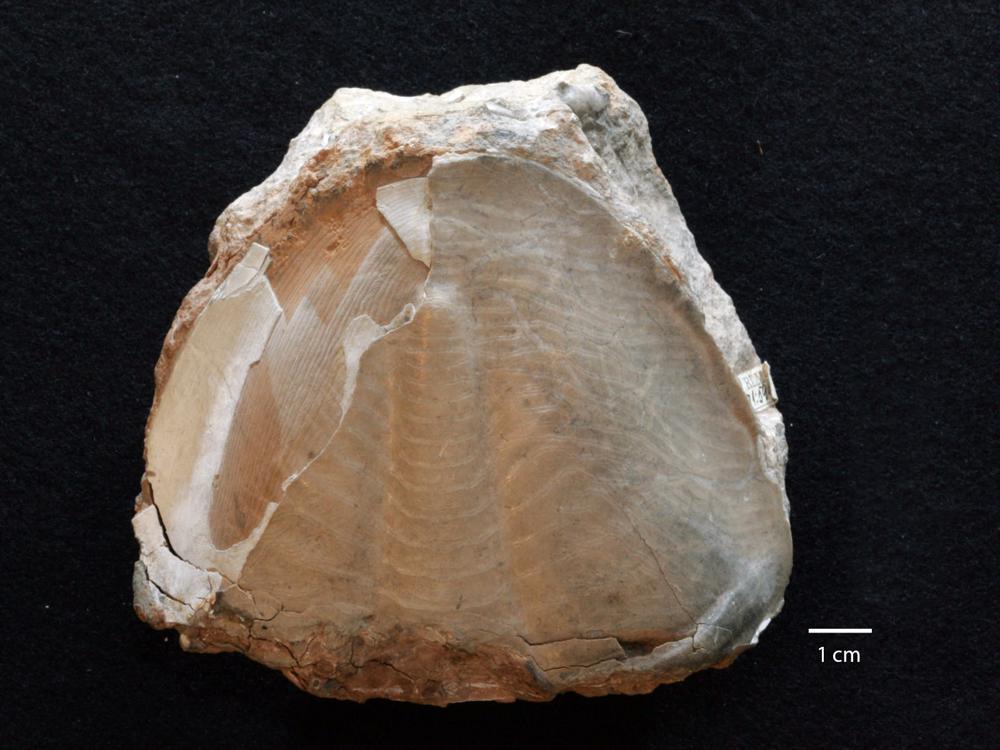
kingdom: Animalia
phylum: Arthropoda
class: Trilobita
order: Asaphida
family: Asaphidae
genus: Pseudoasaphus
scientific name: Pseudoasaphus
